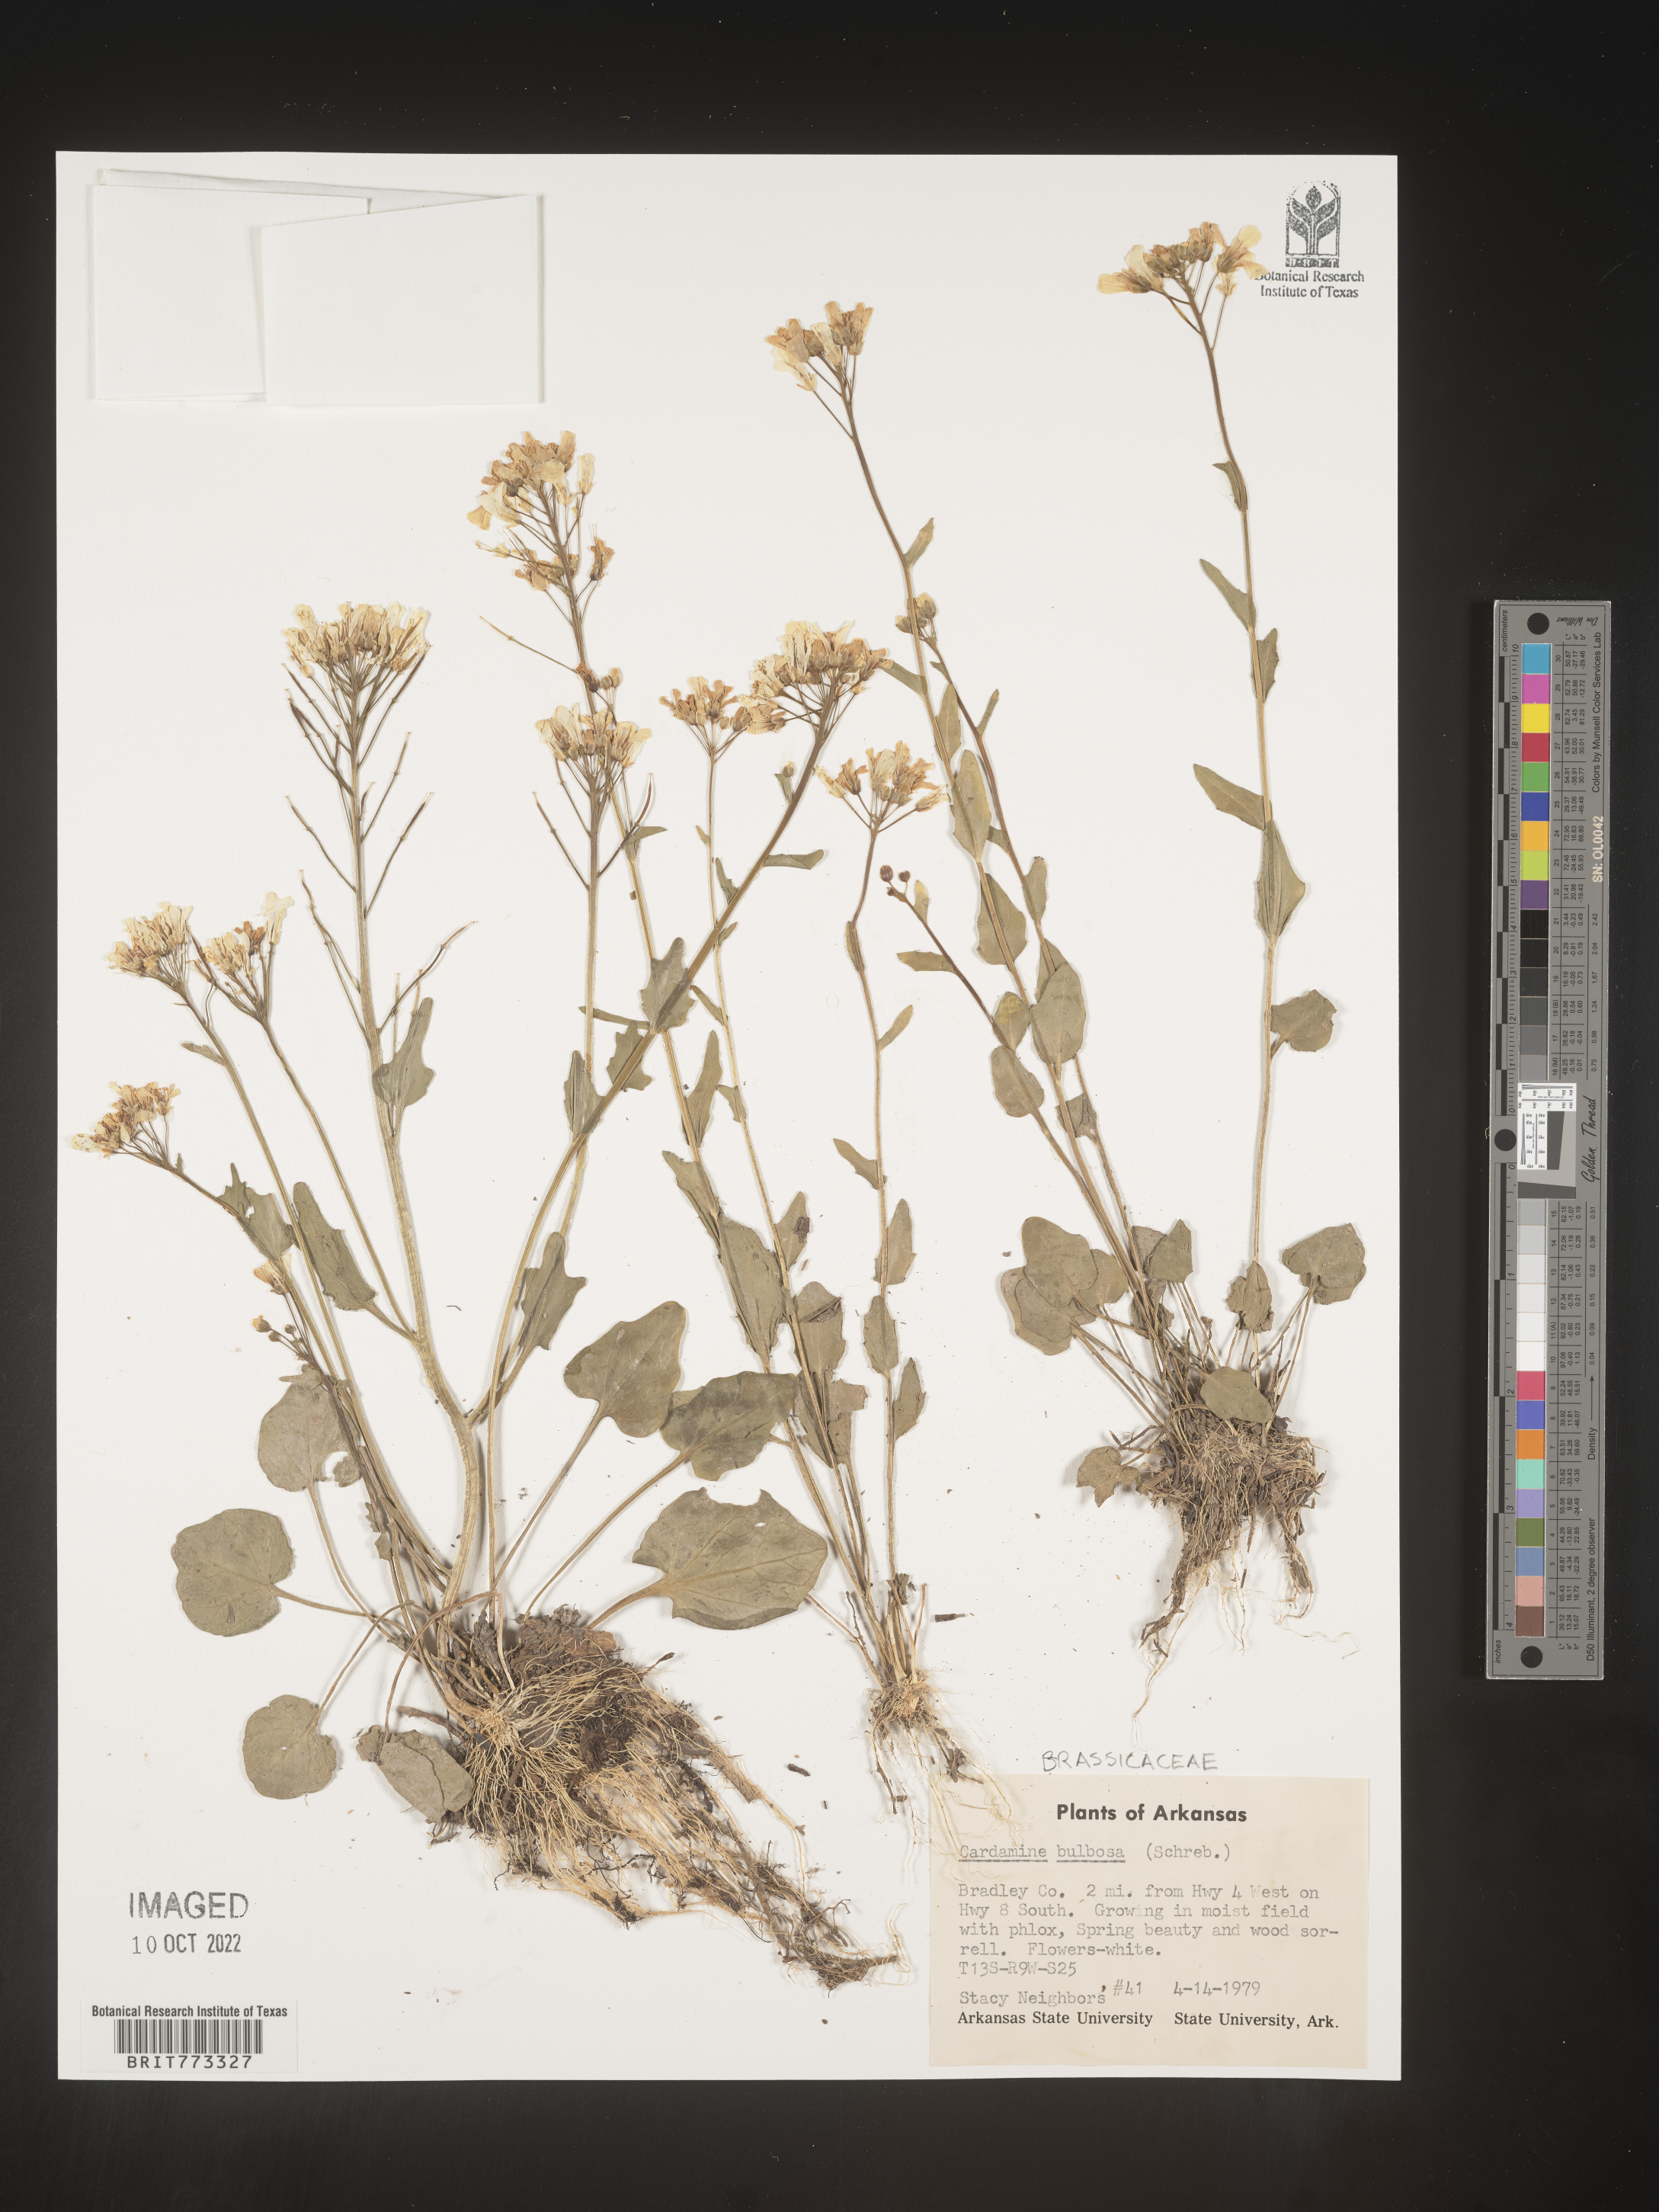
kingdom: Plantae
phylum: Tracheophyta
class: Magnoliopsida
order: Brassicales
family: Brassicaceae
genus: Cardamine
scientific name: Cardamine bulbosa
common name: Spring cress
